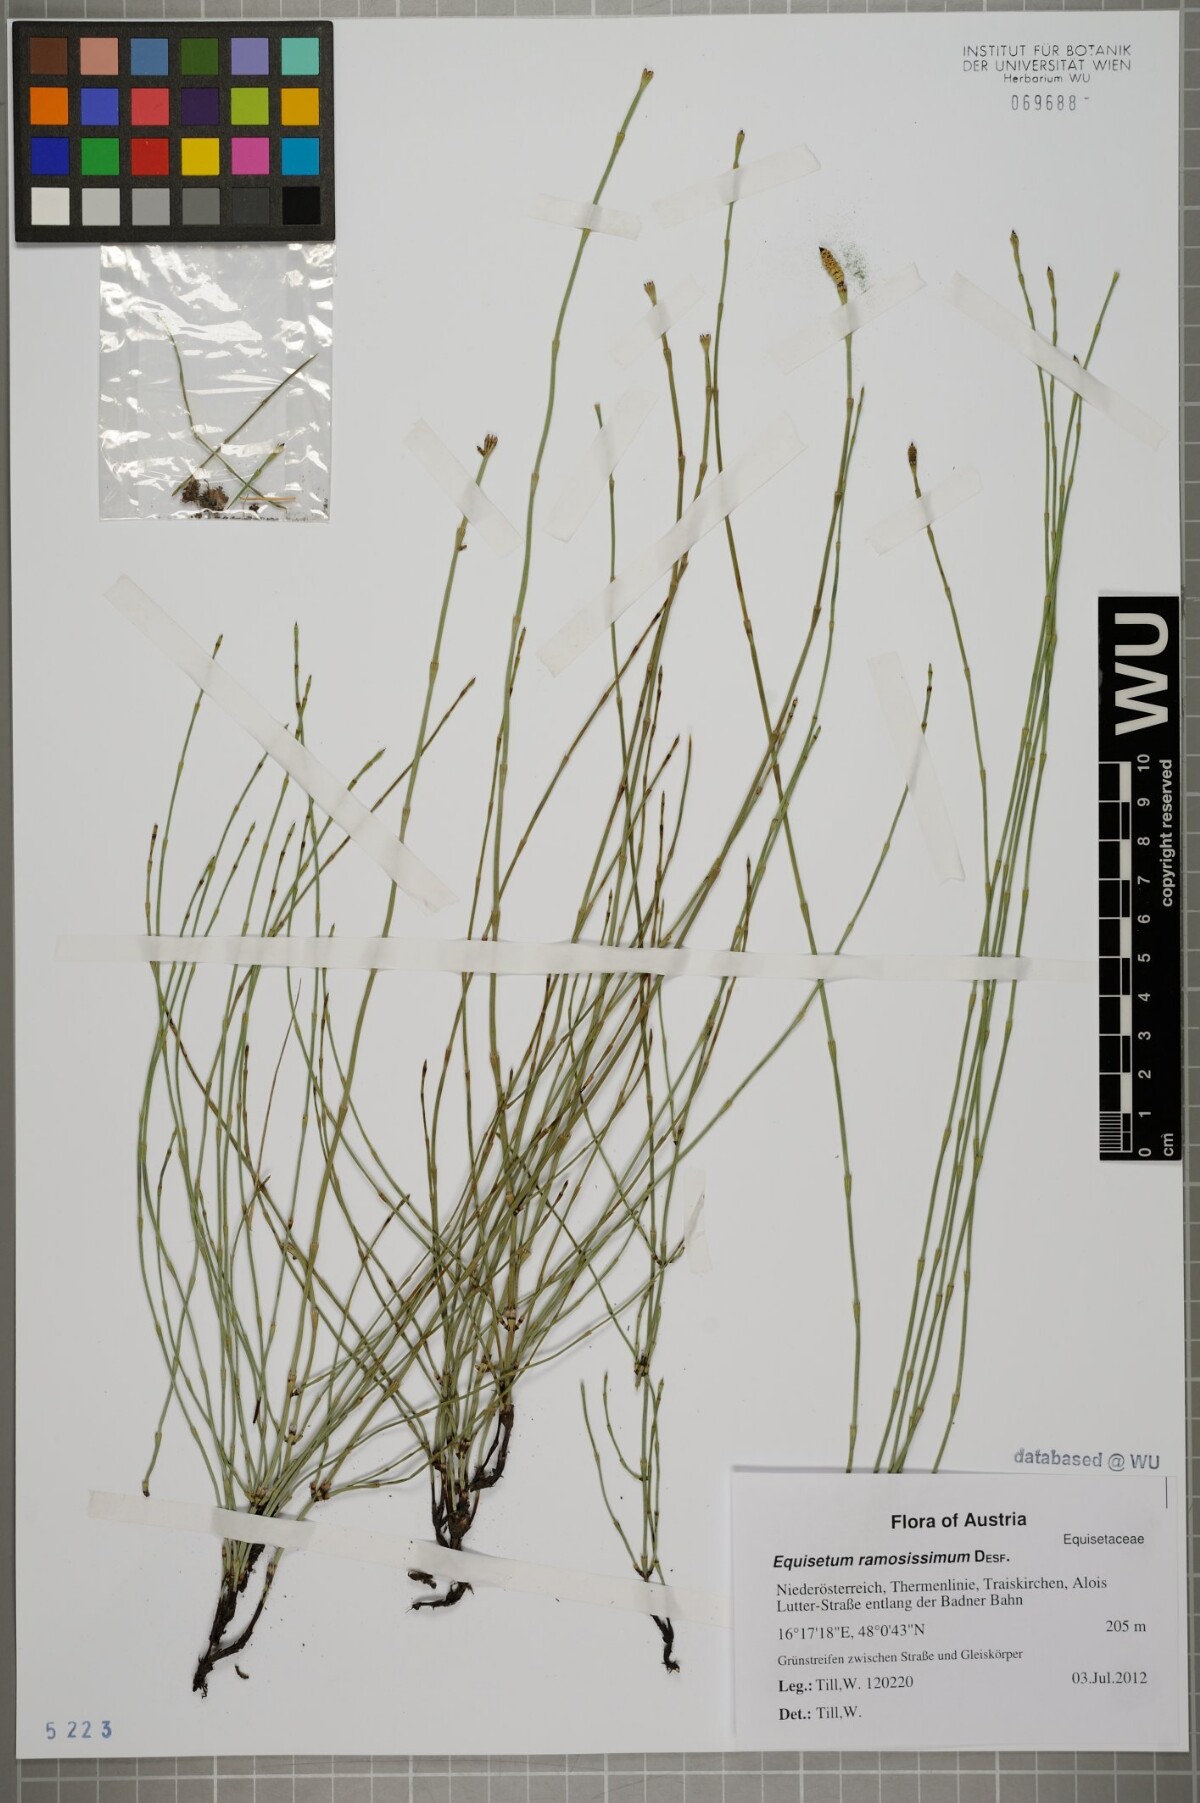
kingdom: Plantae
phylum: Tracheophyta
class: Polypodiopsida
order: Equisetales
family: Equisetaceae
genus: Equisetum
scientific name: Equisetum ramosissimum
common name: Branched horsetail
